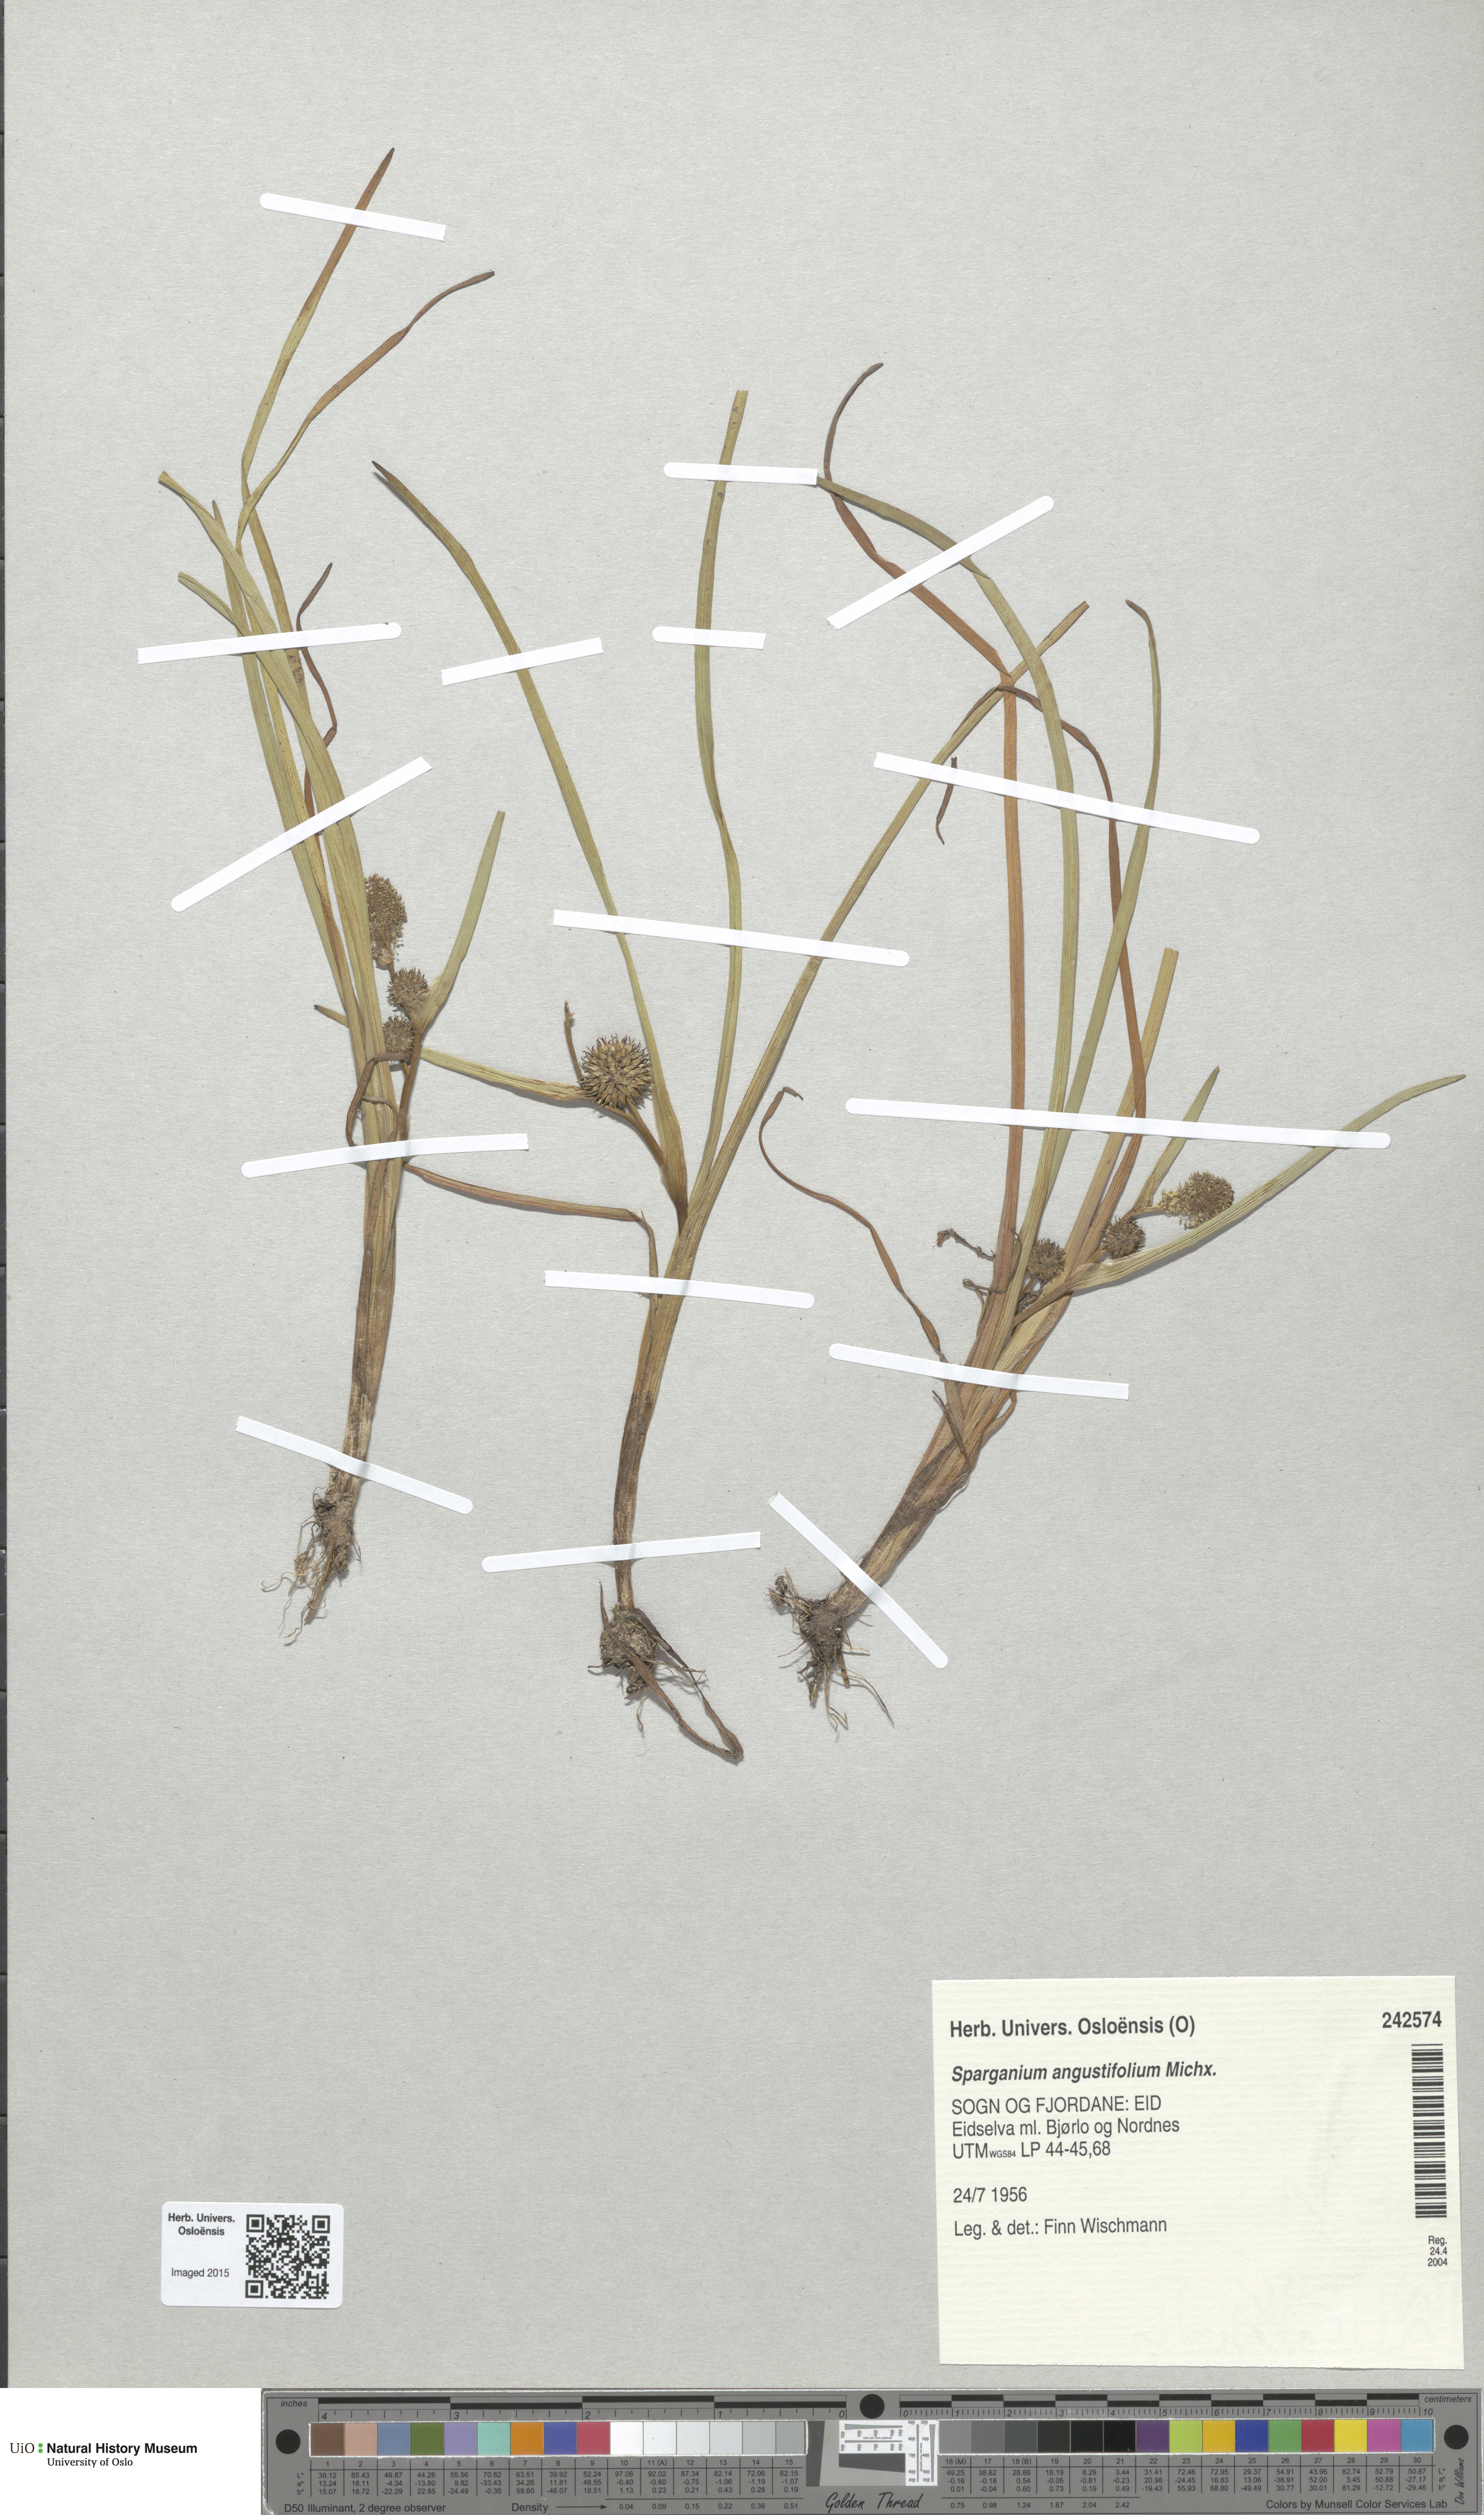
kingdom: Plantae
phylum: Tracheophyta
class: Liliopsida
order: Poales
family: Typhaceae
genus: Sparganium
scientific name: Sparganium angustifolium
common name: Floating bur-reed
